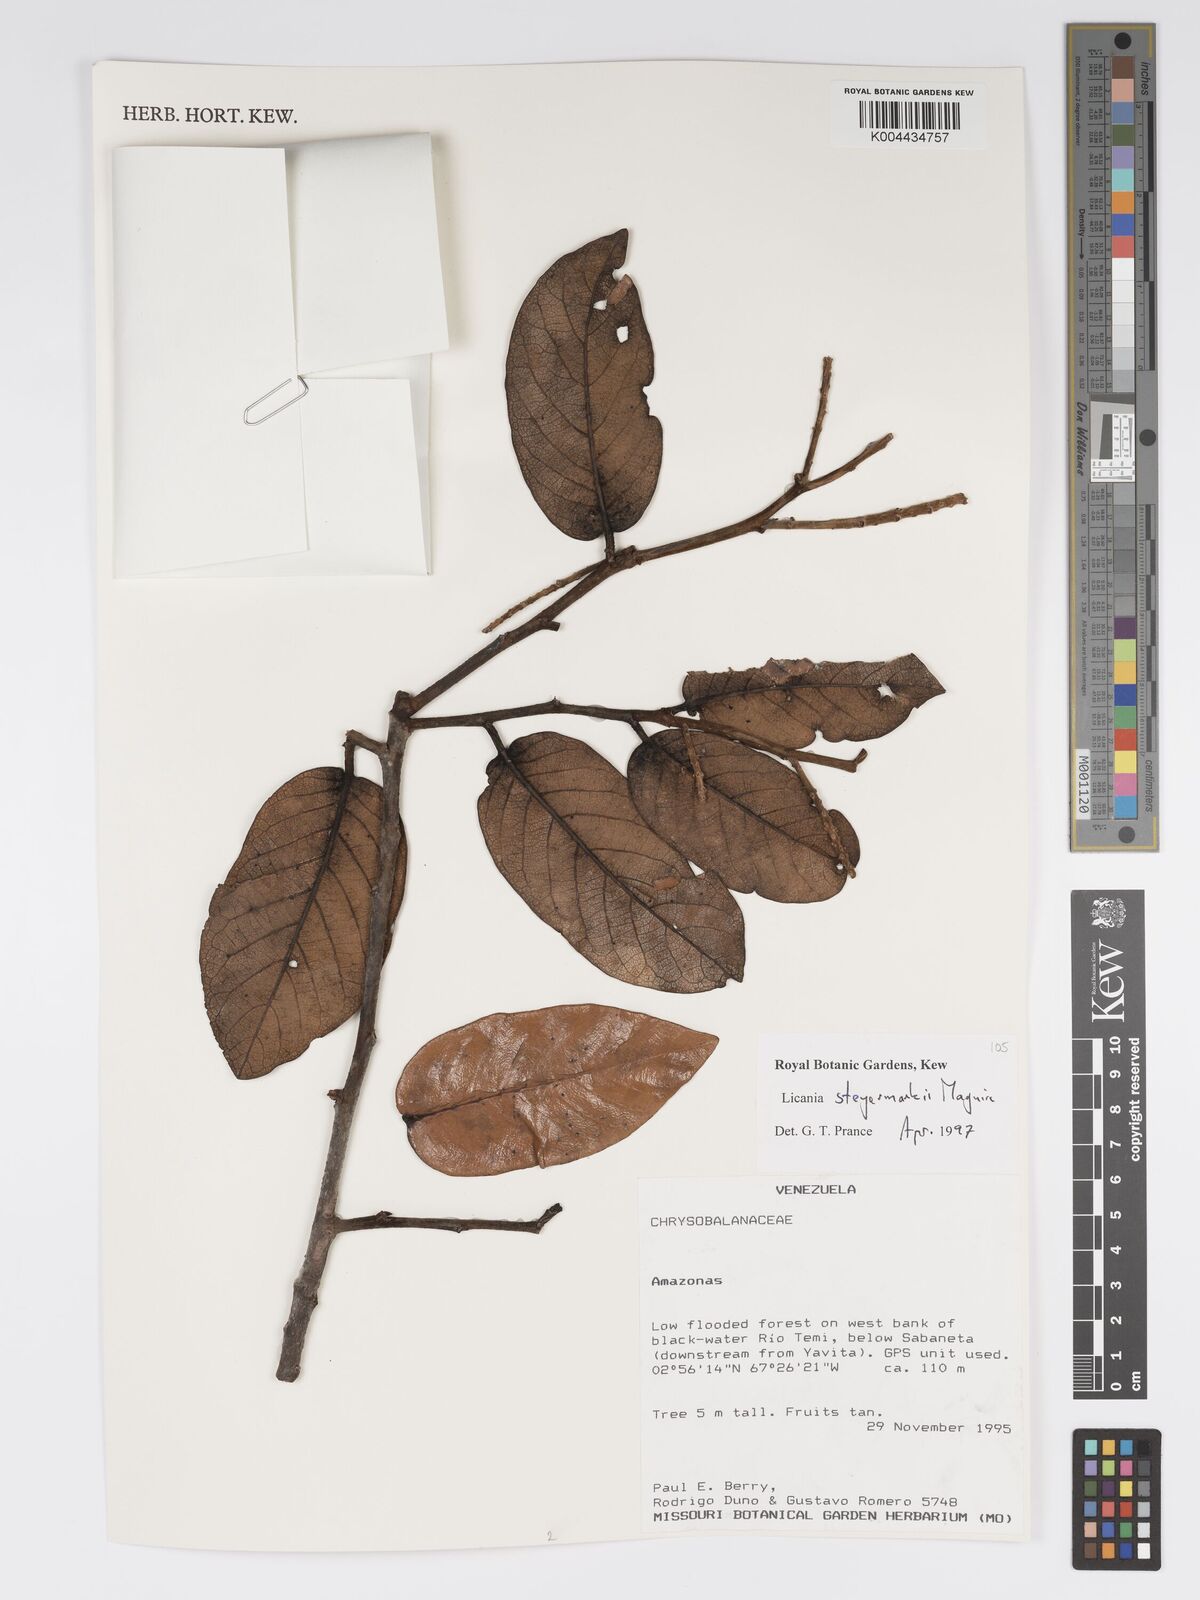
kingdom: Plantae
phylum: Tracheophyta
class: Magnoliopsida
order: Malpighiales
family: Chrysobalanaceae
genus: Licania
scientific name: Licania steyermarkii
